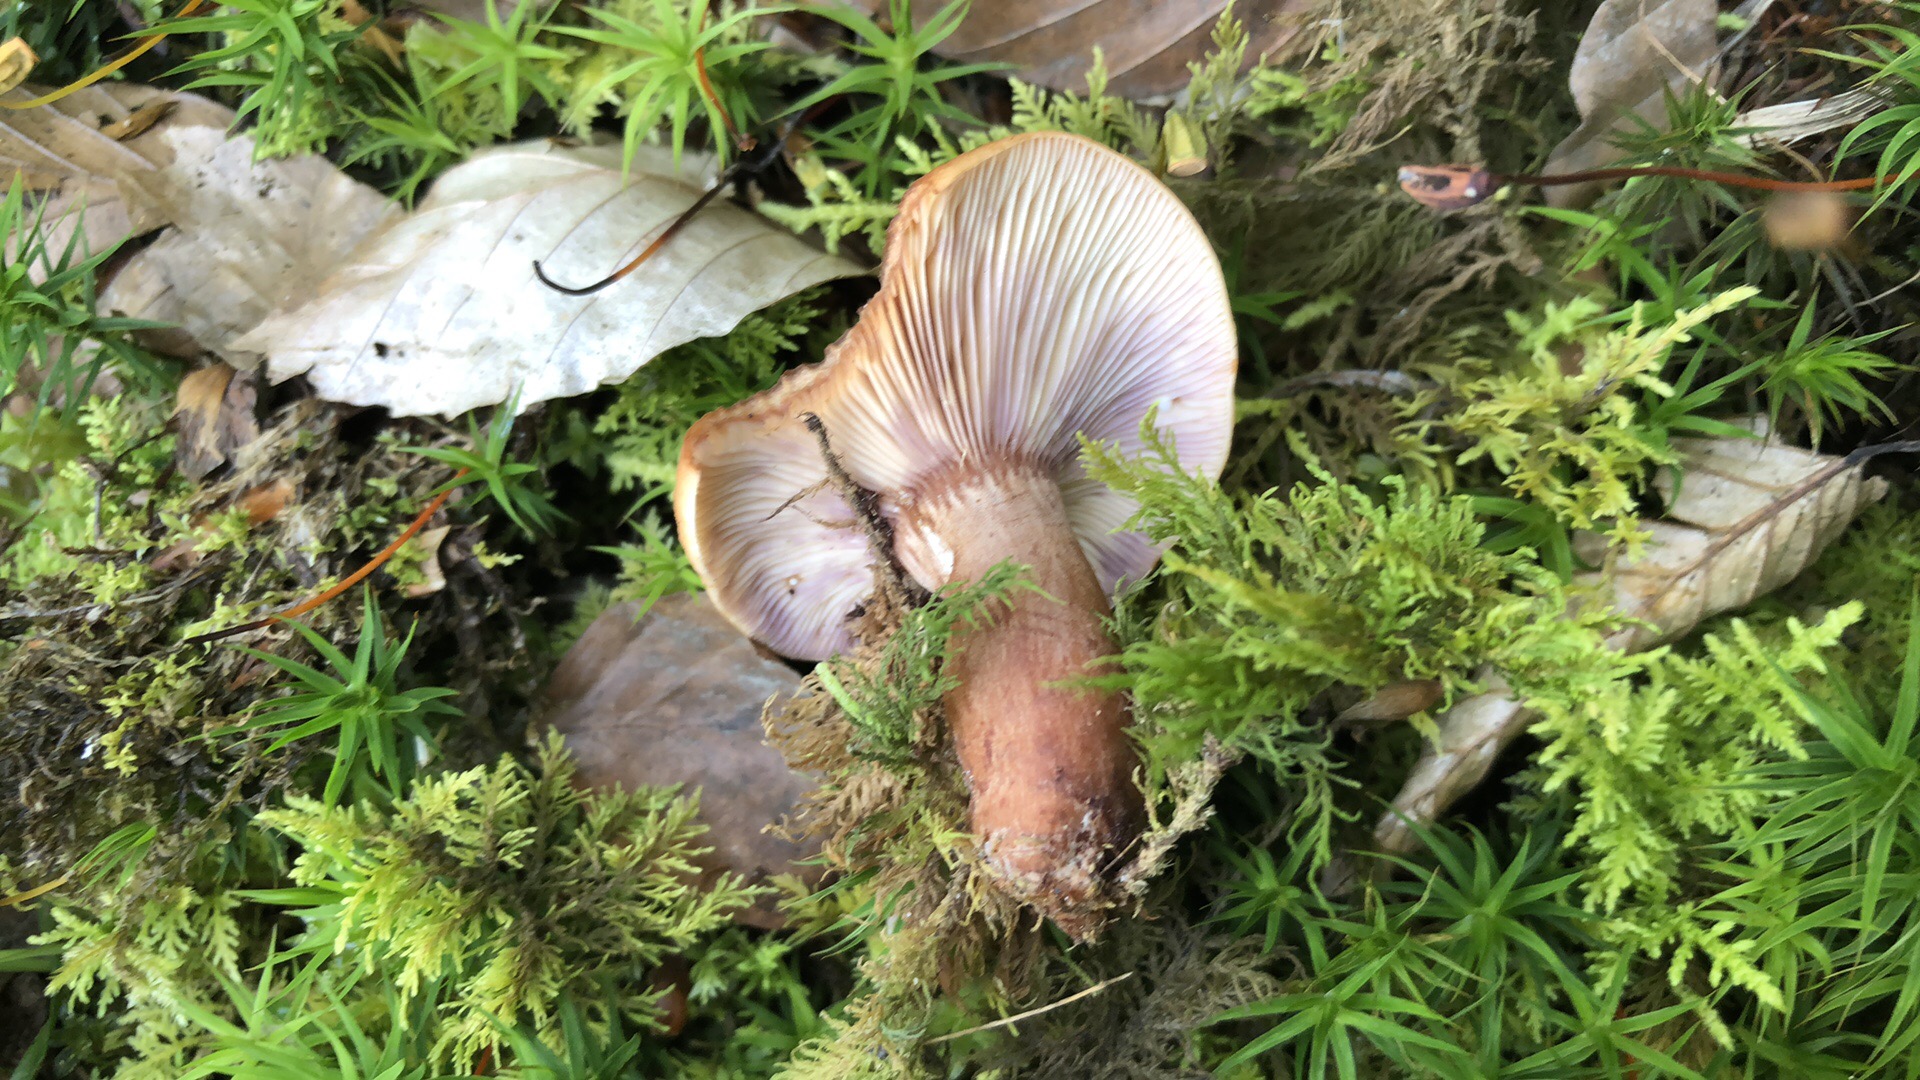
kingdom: Fungi
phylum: Basidiomycota
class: Agaricomycetes
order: Russulales
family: Russulaceae
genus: Lactarius
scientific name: Lactarius rubrocinctus
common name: halsbånd-mælkehat
